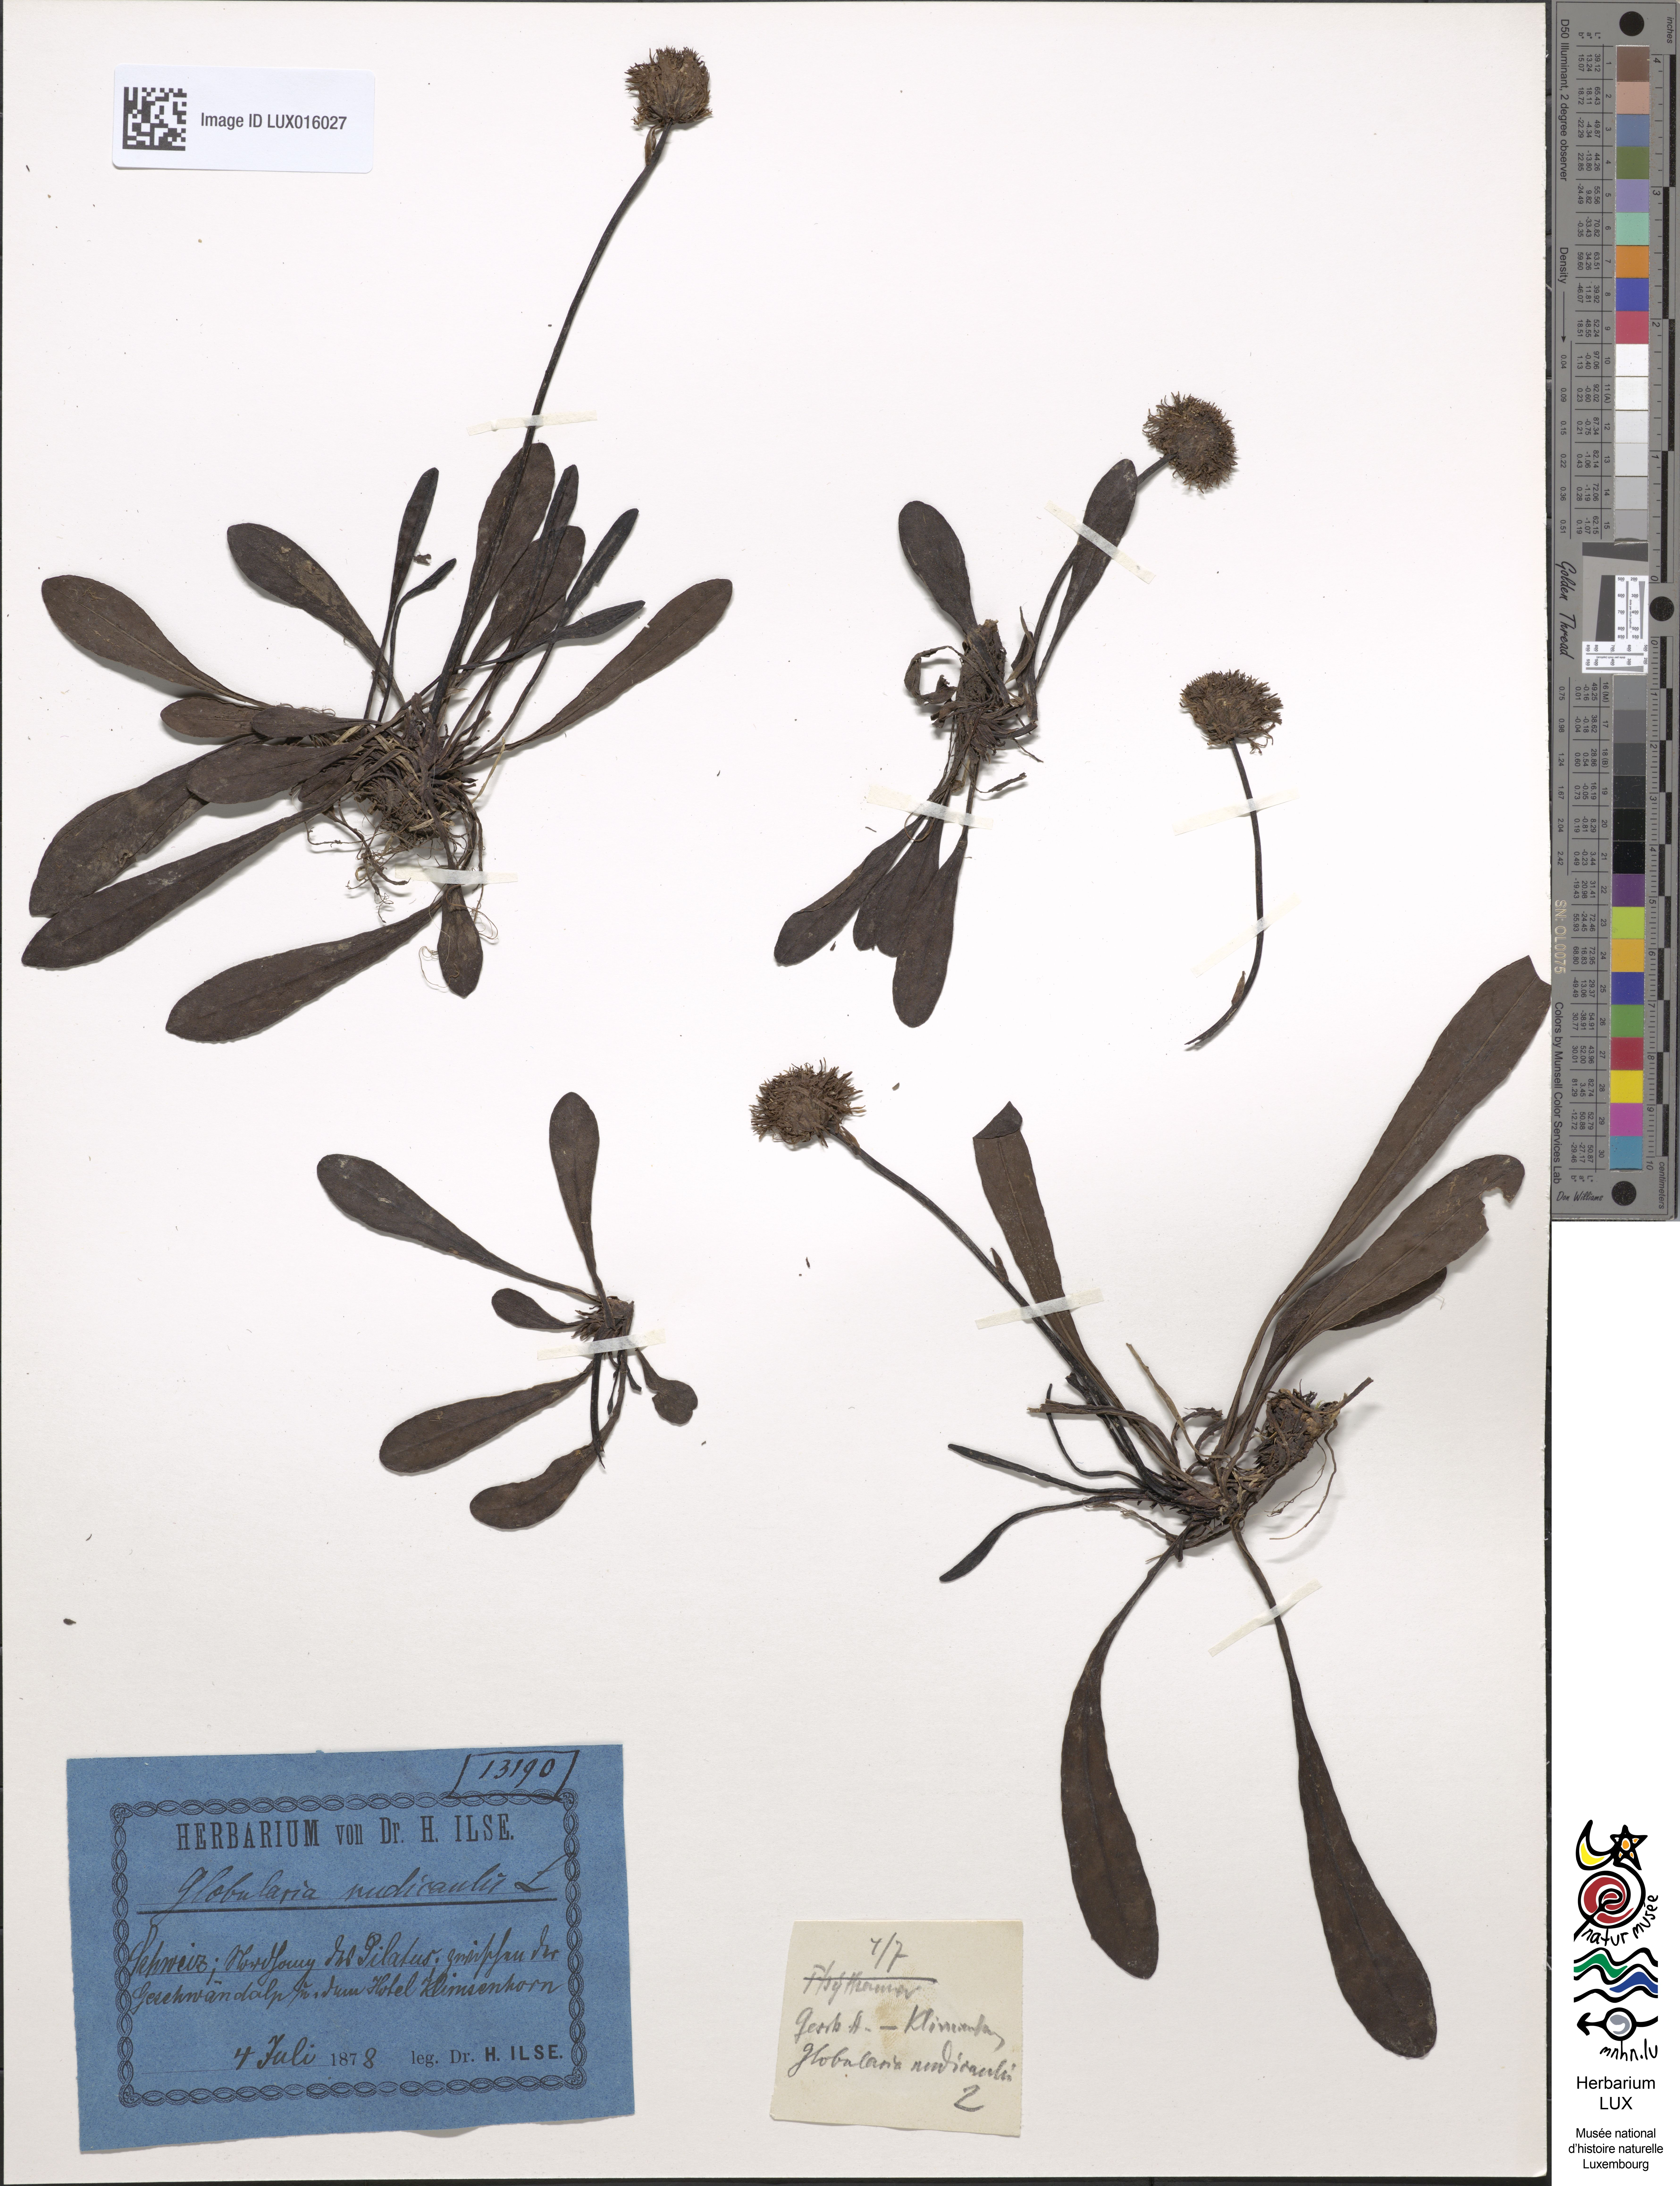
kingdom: Plantae
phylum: Tracheophyta
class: Magnoliopsida
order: Lamiales
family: Plantaginaceae
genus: Globularia
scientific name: Globularia nudicaulis
